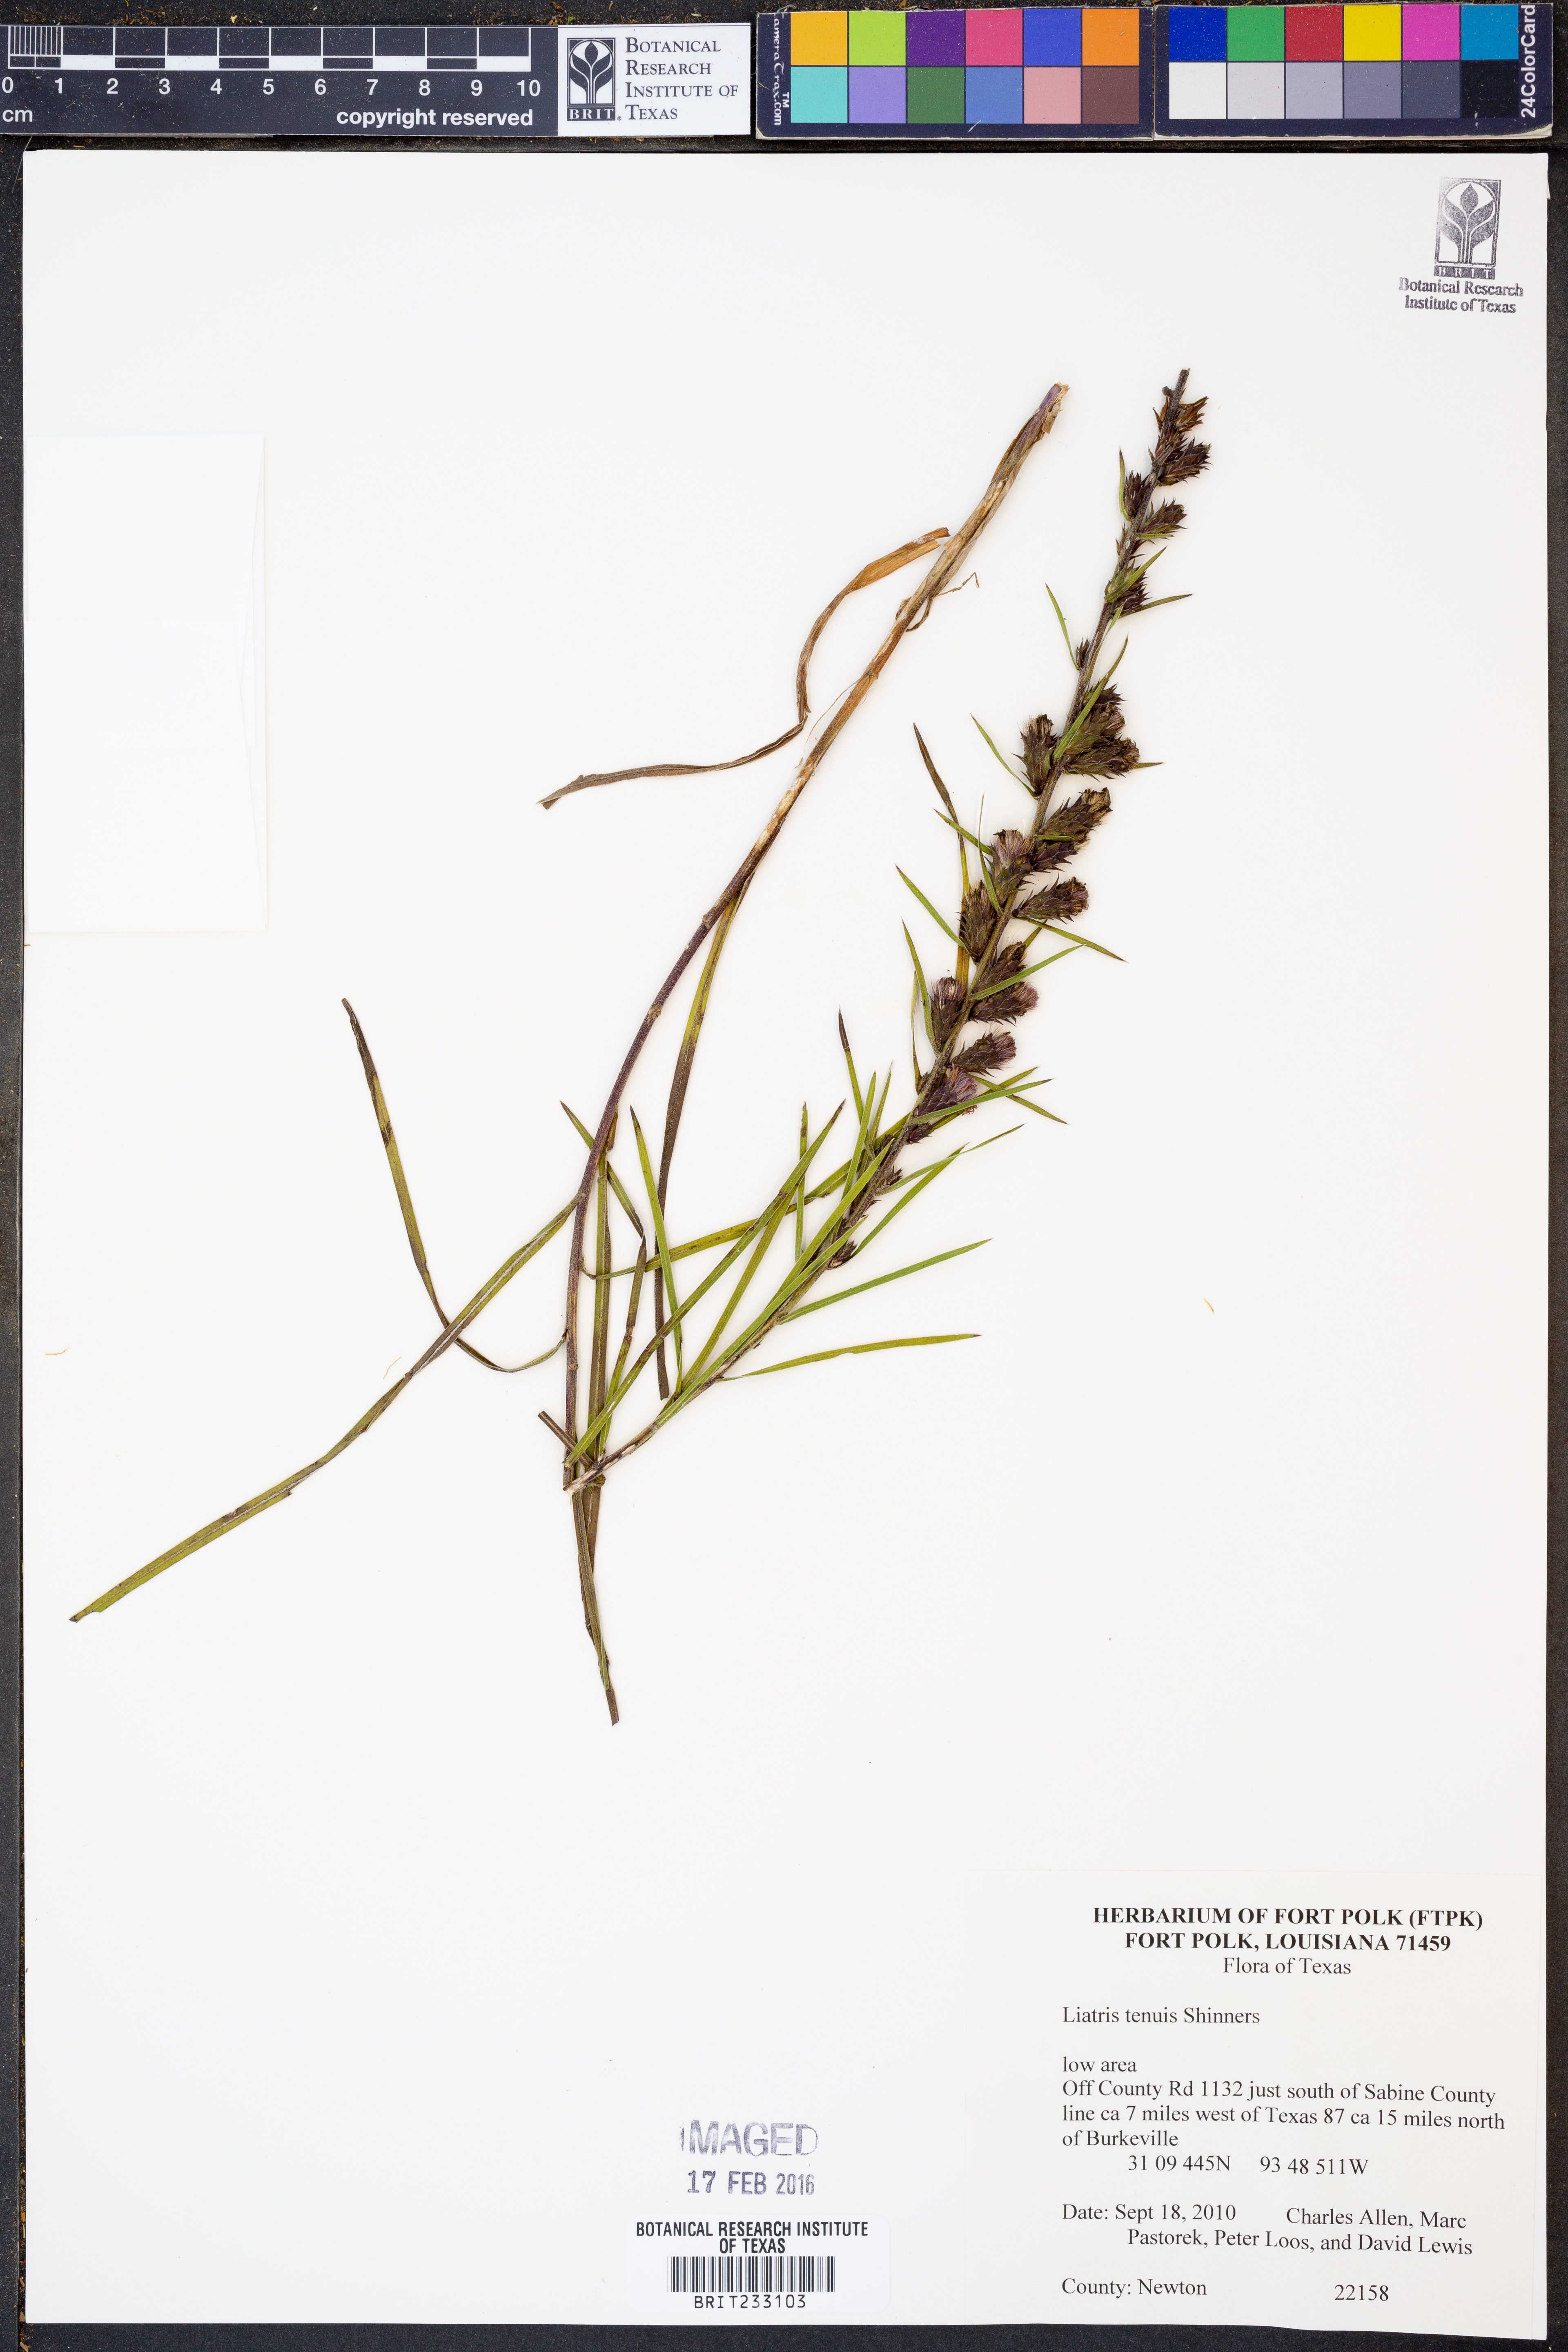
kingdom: Plantae
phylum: Tracheophyta
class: Magnoliopsida
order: Asterales
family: Asteraceae
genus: Liatris
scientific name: Liatris tenuis
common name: Shinner's gayfeather
